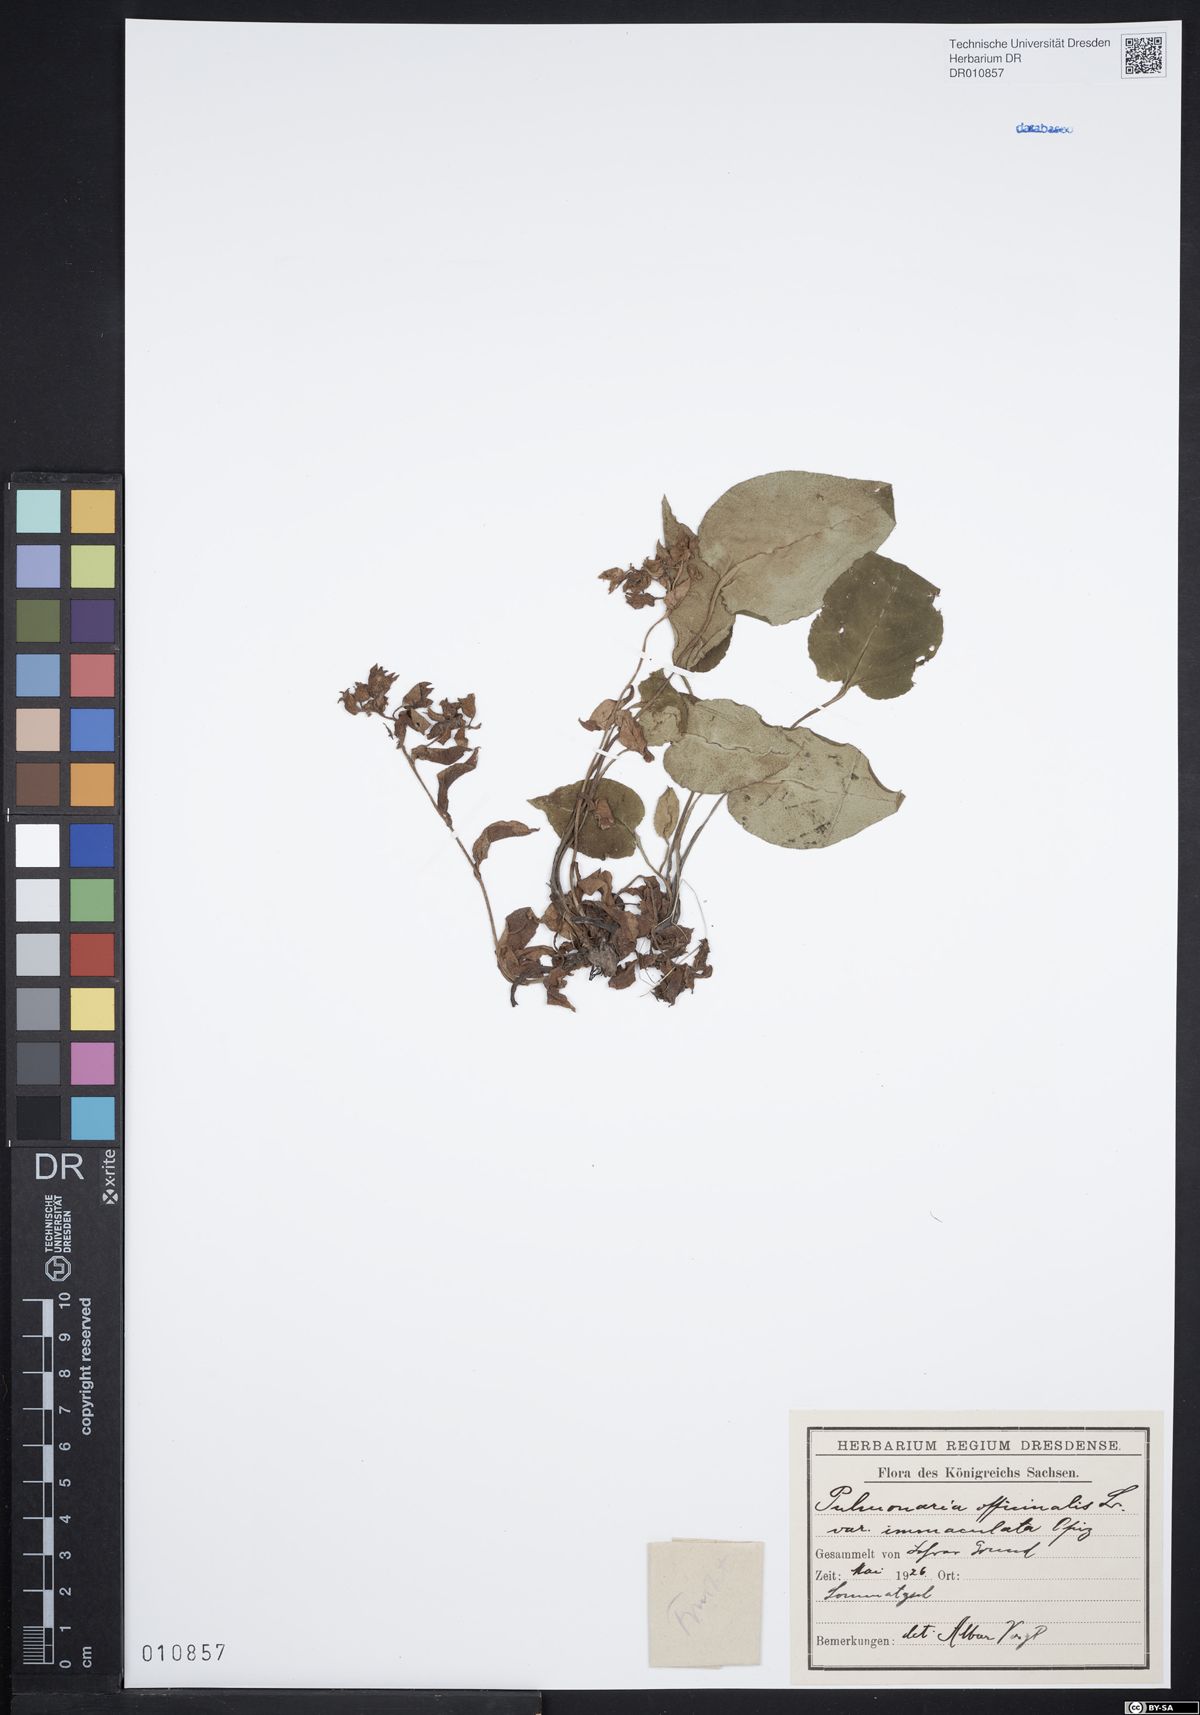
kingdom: Plantae
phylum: Tracheophyta
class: Magnoliopsida
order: Boraginales
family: Boraginaceae
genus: Pulmonaria
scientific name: Pulmonaria obscura
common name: Suffolk lungwort
